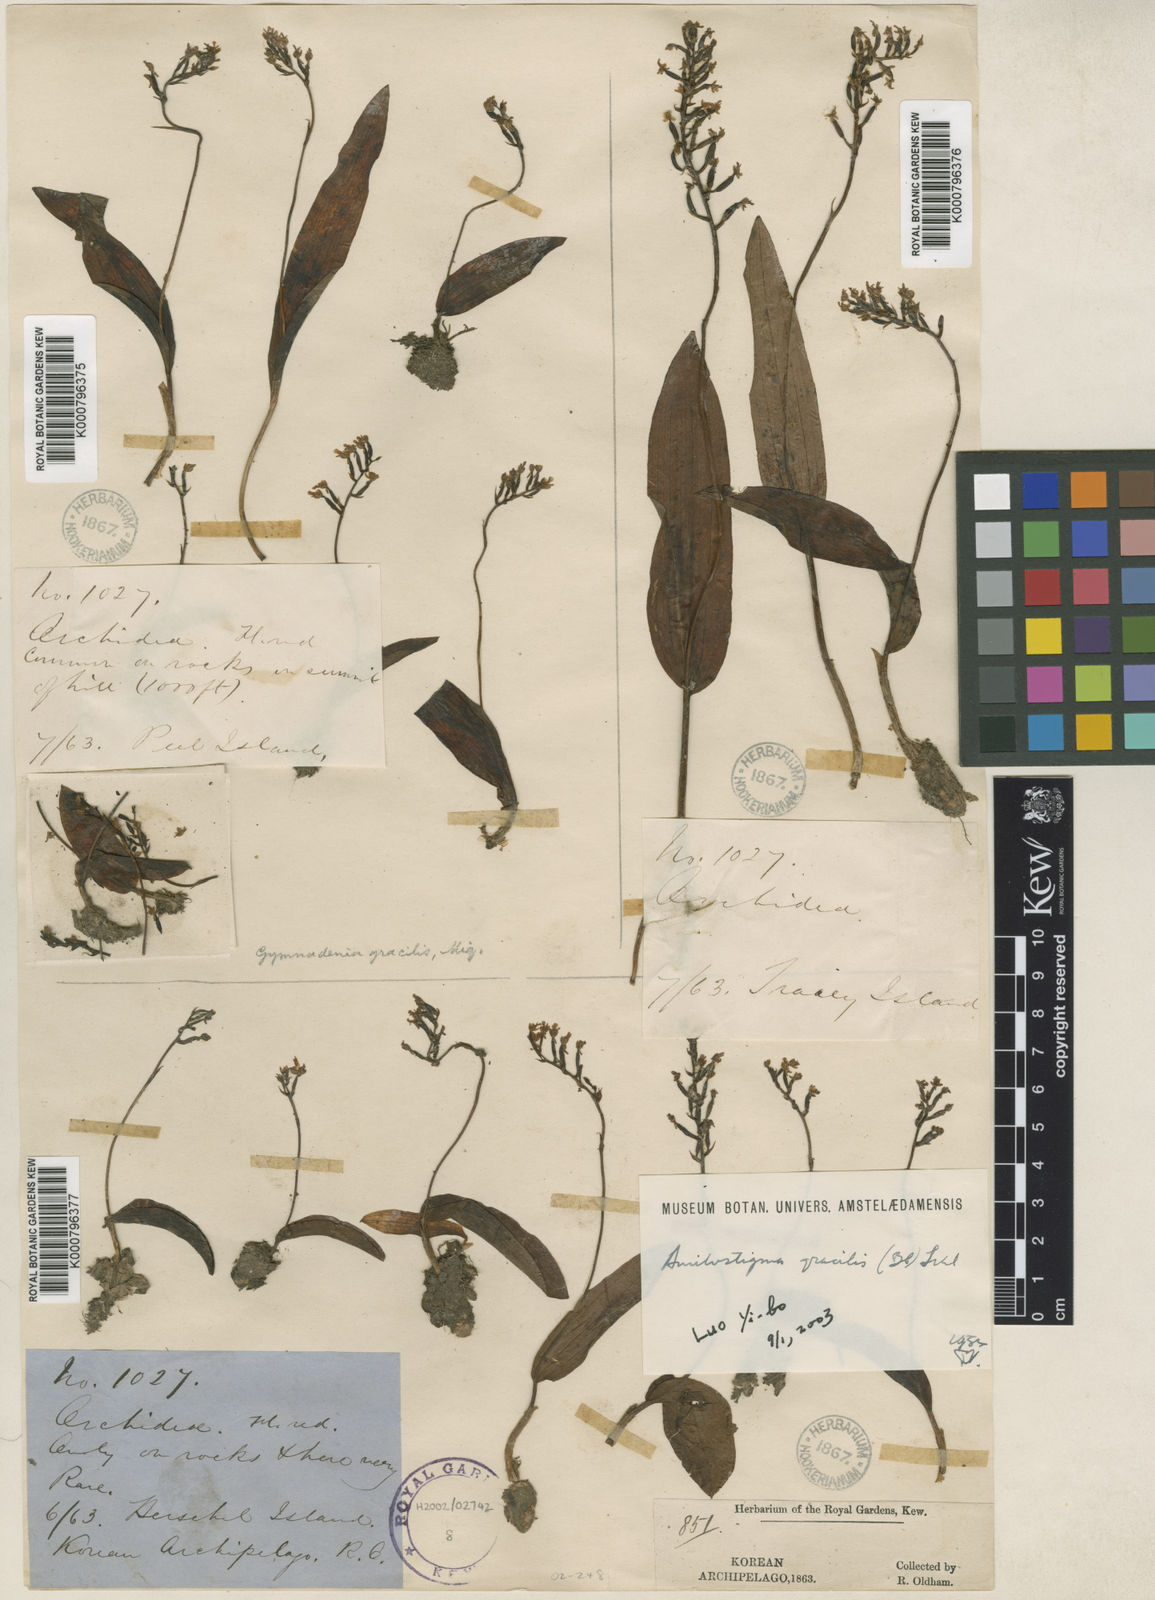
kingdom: Plantae
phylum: Tracheophyta
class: Liliopsida
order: Asparagales
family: Orchidaceae
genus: Hemipilia
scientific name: Hemipilia gracilis
